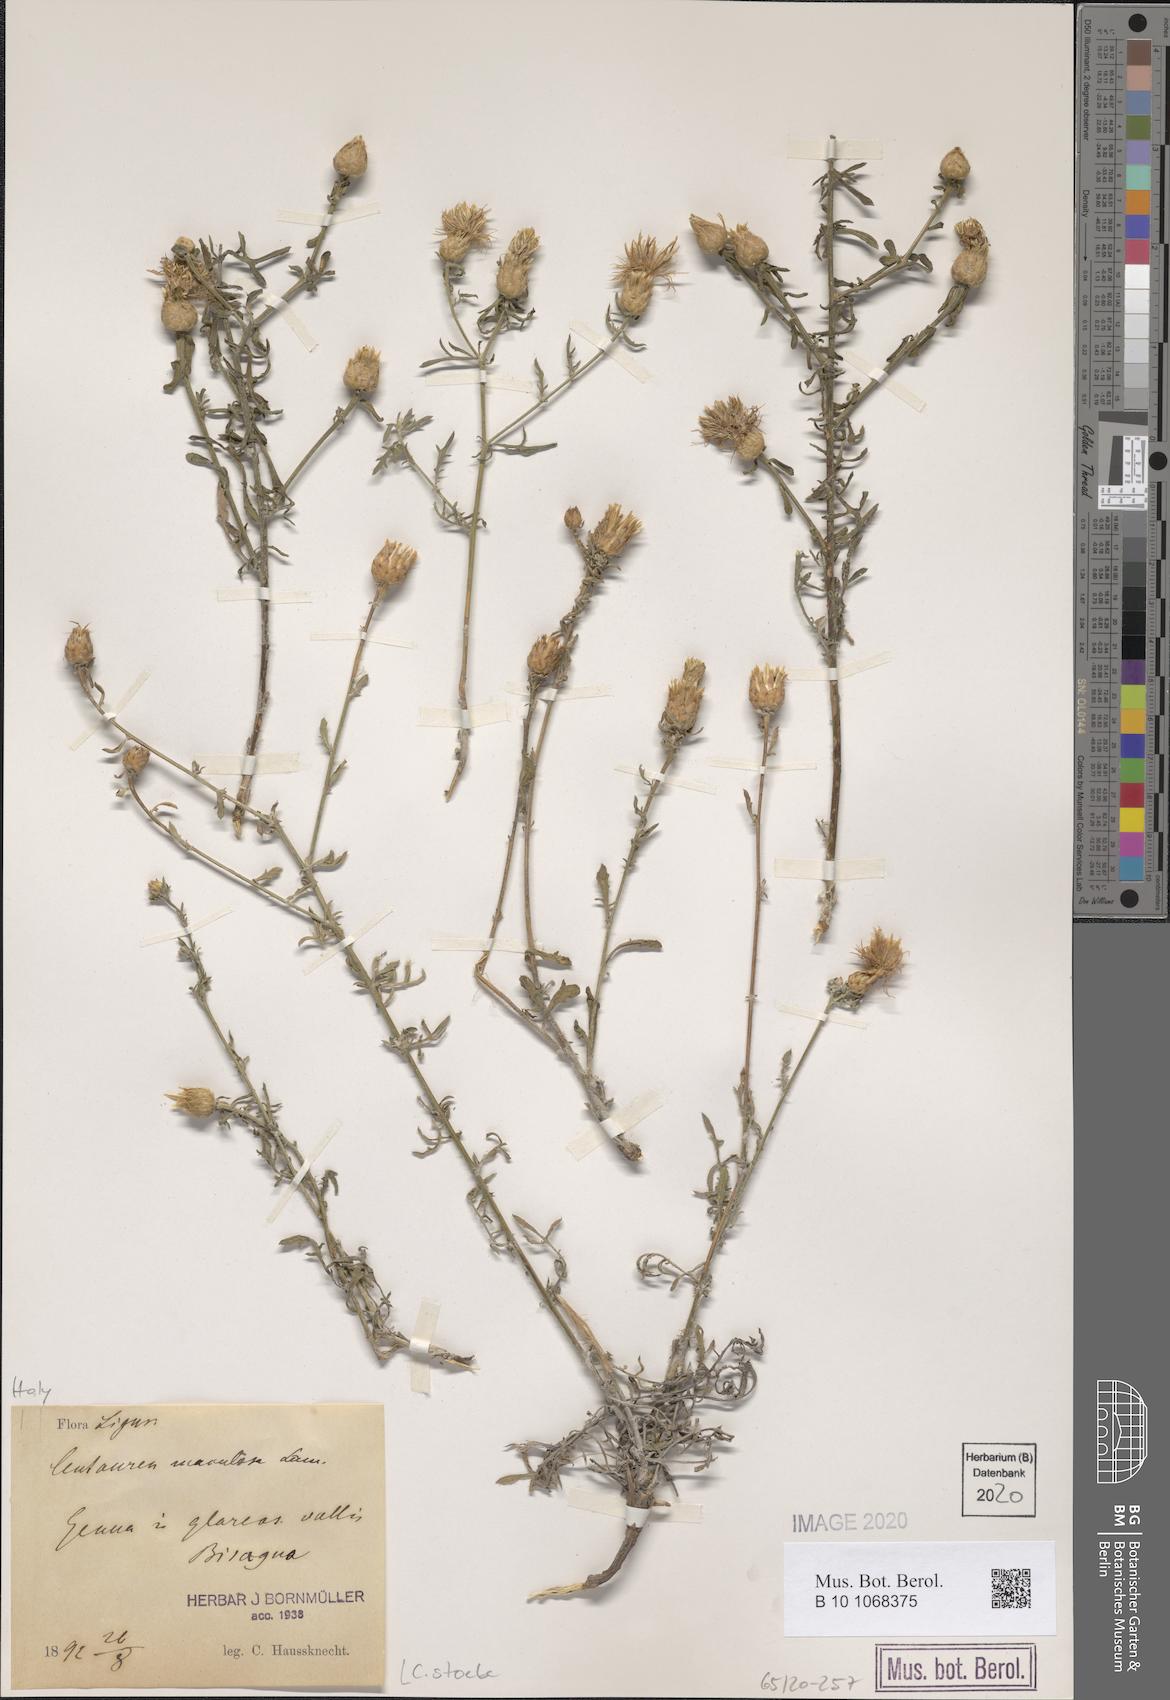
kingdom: Plantae
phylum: Tracheophyta
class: Magnoliopsida
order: Asterales
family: Asteraceae
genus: Centaurea
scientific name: Centaurea stoebe
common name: Spotted knapweed
